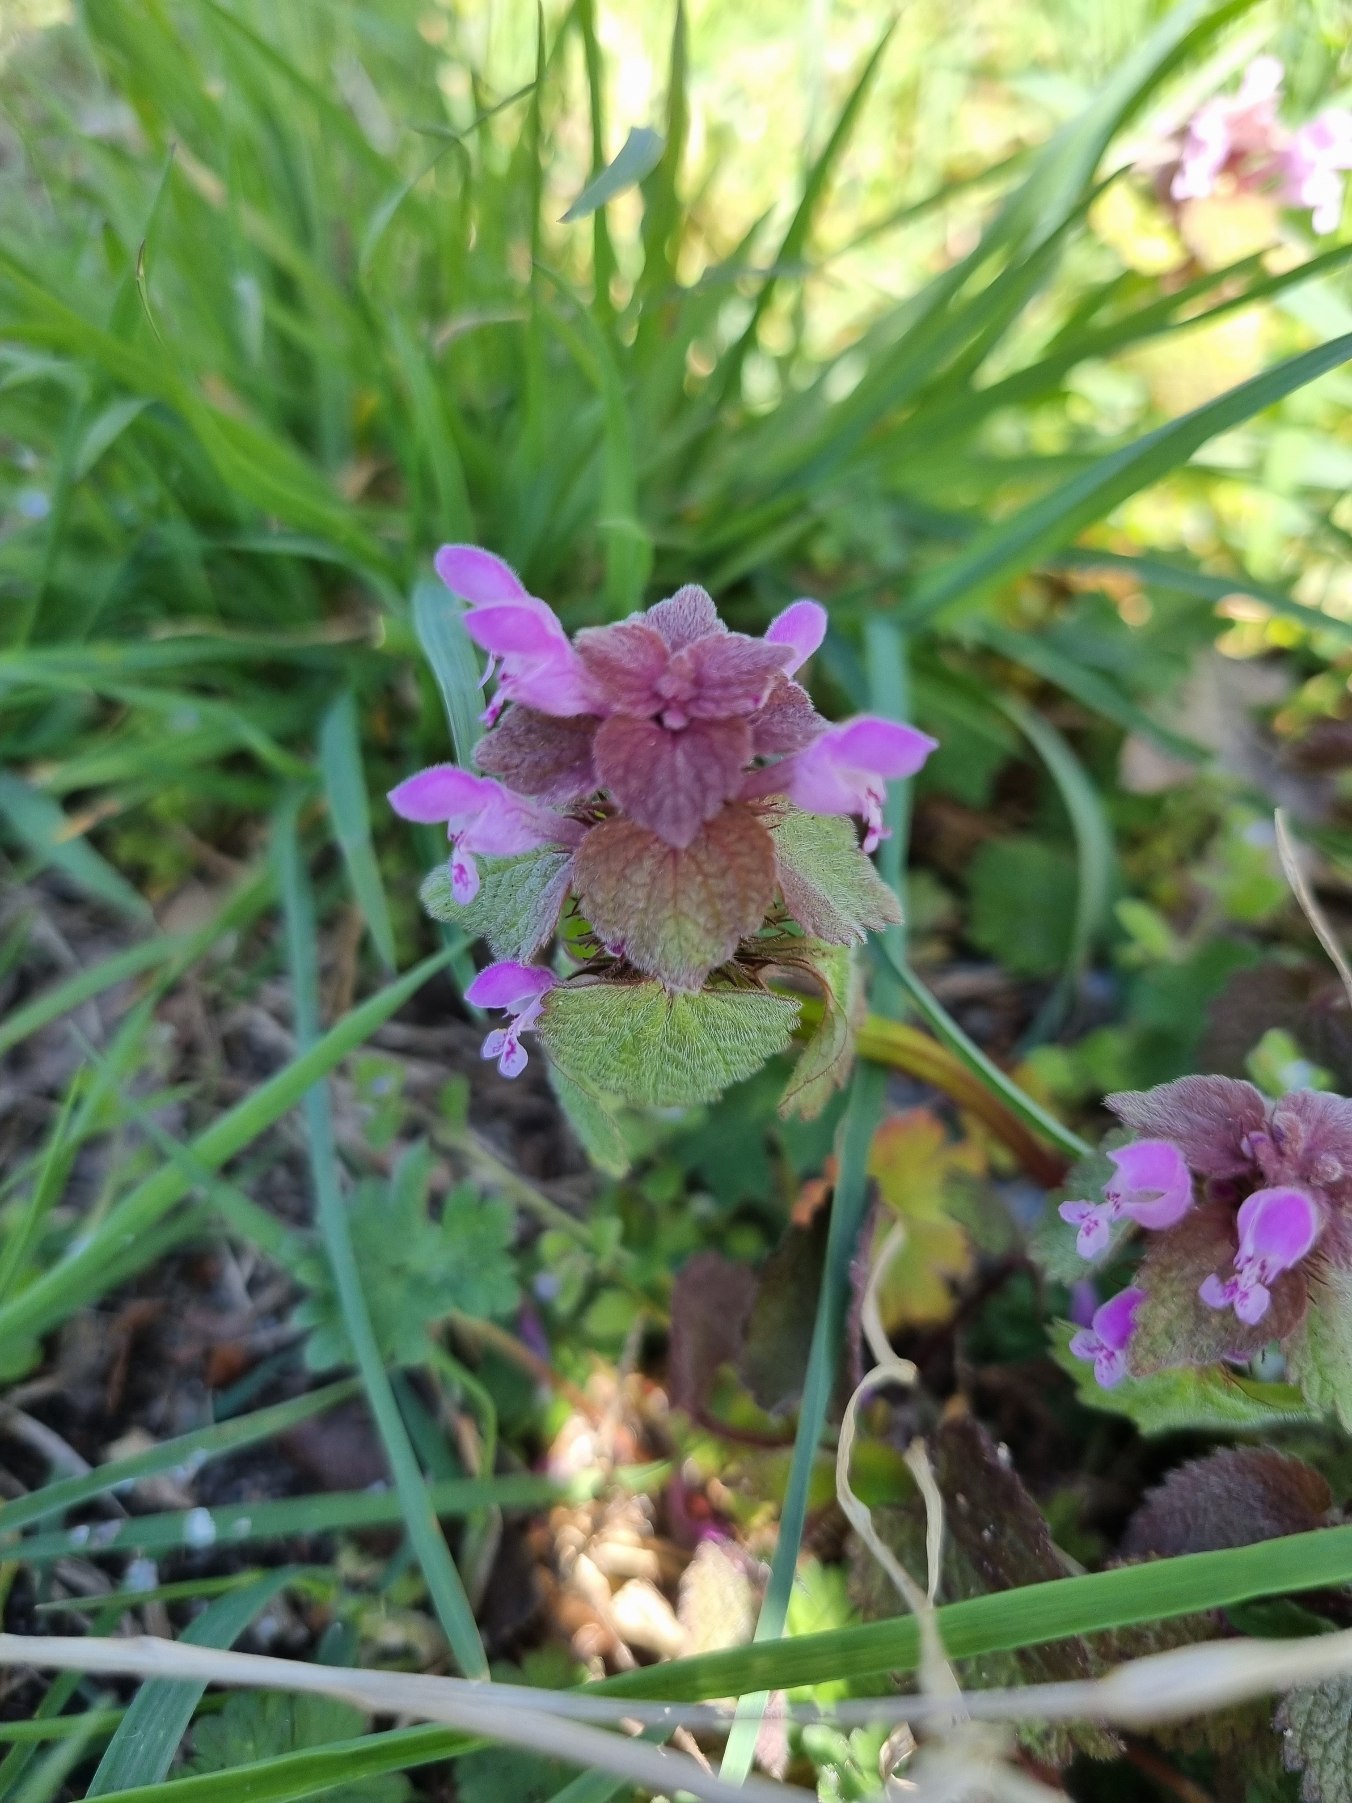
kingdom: Plantae
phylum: Tracheophyta
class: Magnoliopsida
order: Lamiales
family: Lamiaceae
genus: Lamium
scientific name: Lamium purpureum
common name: Rød tvetand
